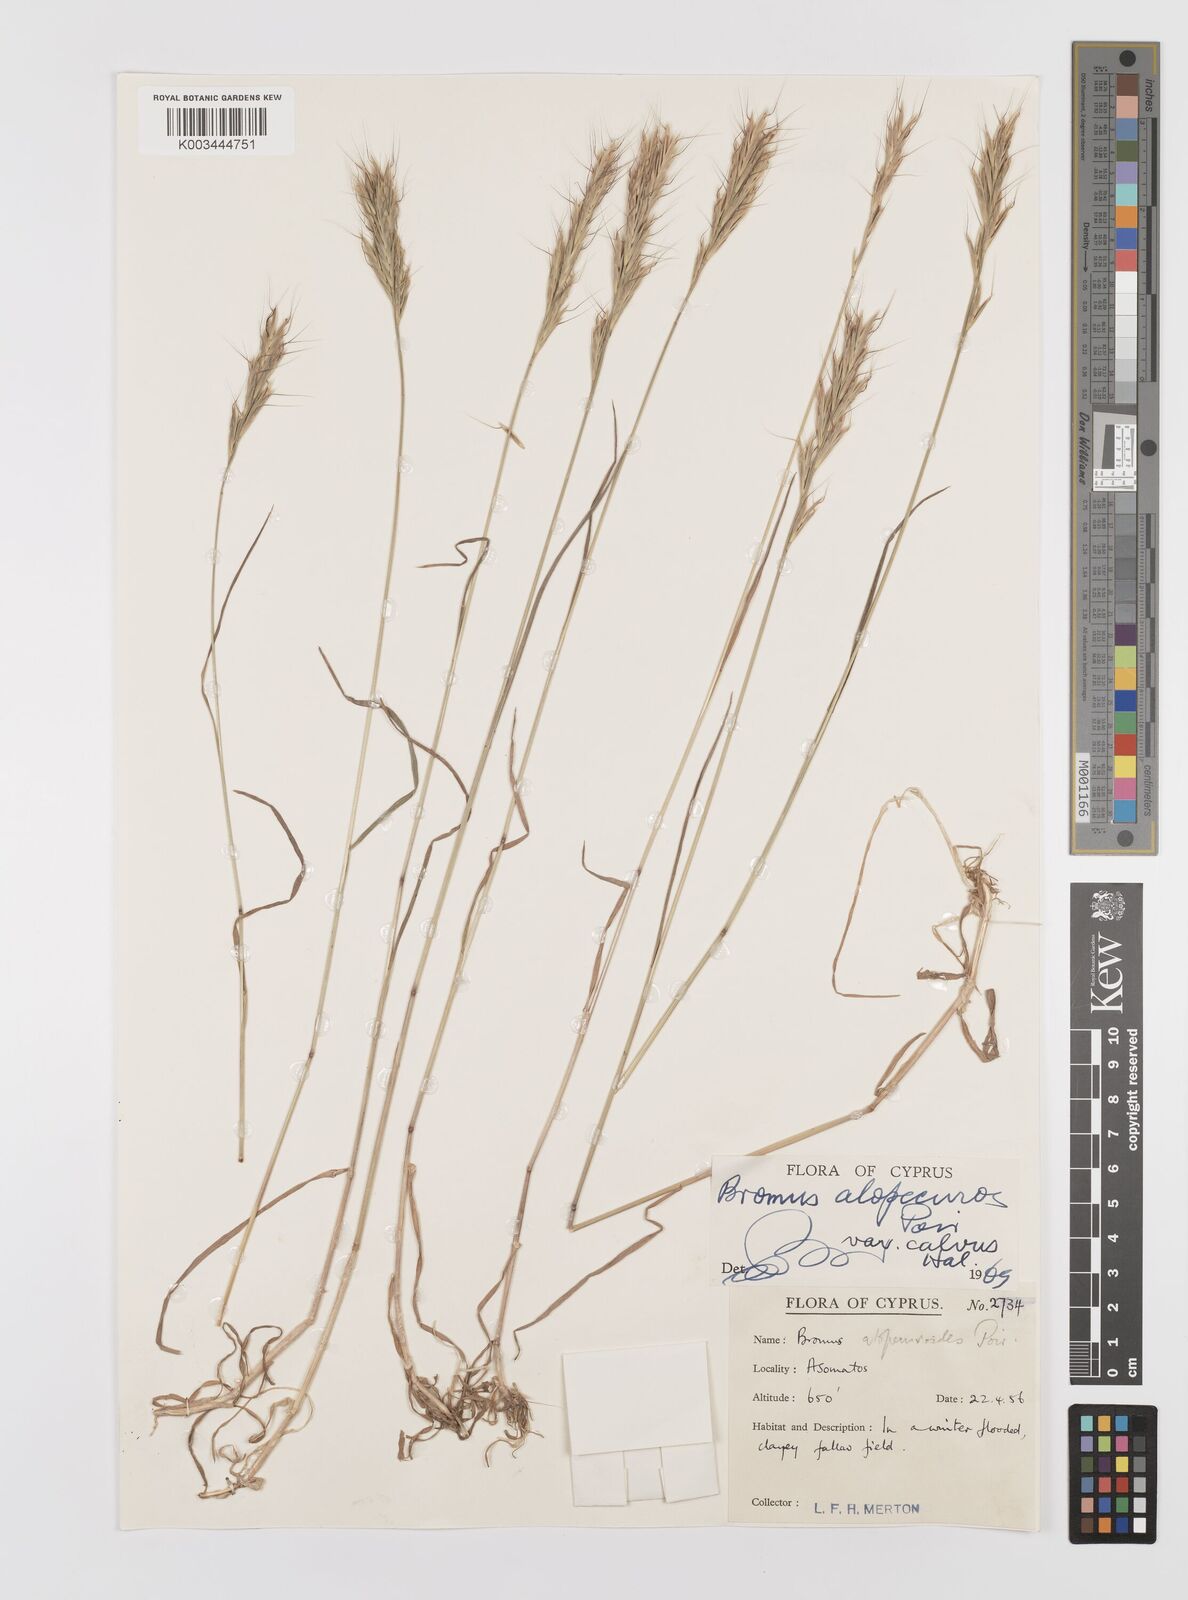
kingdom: Plantae
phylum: Tracheophyta
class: Liliopsida
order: Poales
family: Poaceae
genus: Bromus
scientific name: Bromus alopecuros
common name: Weedy brome
